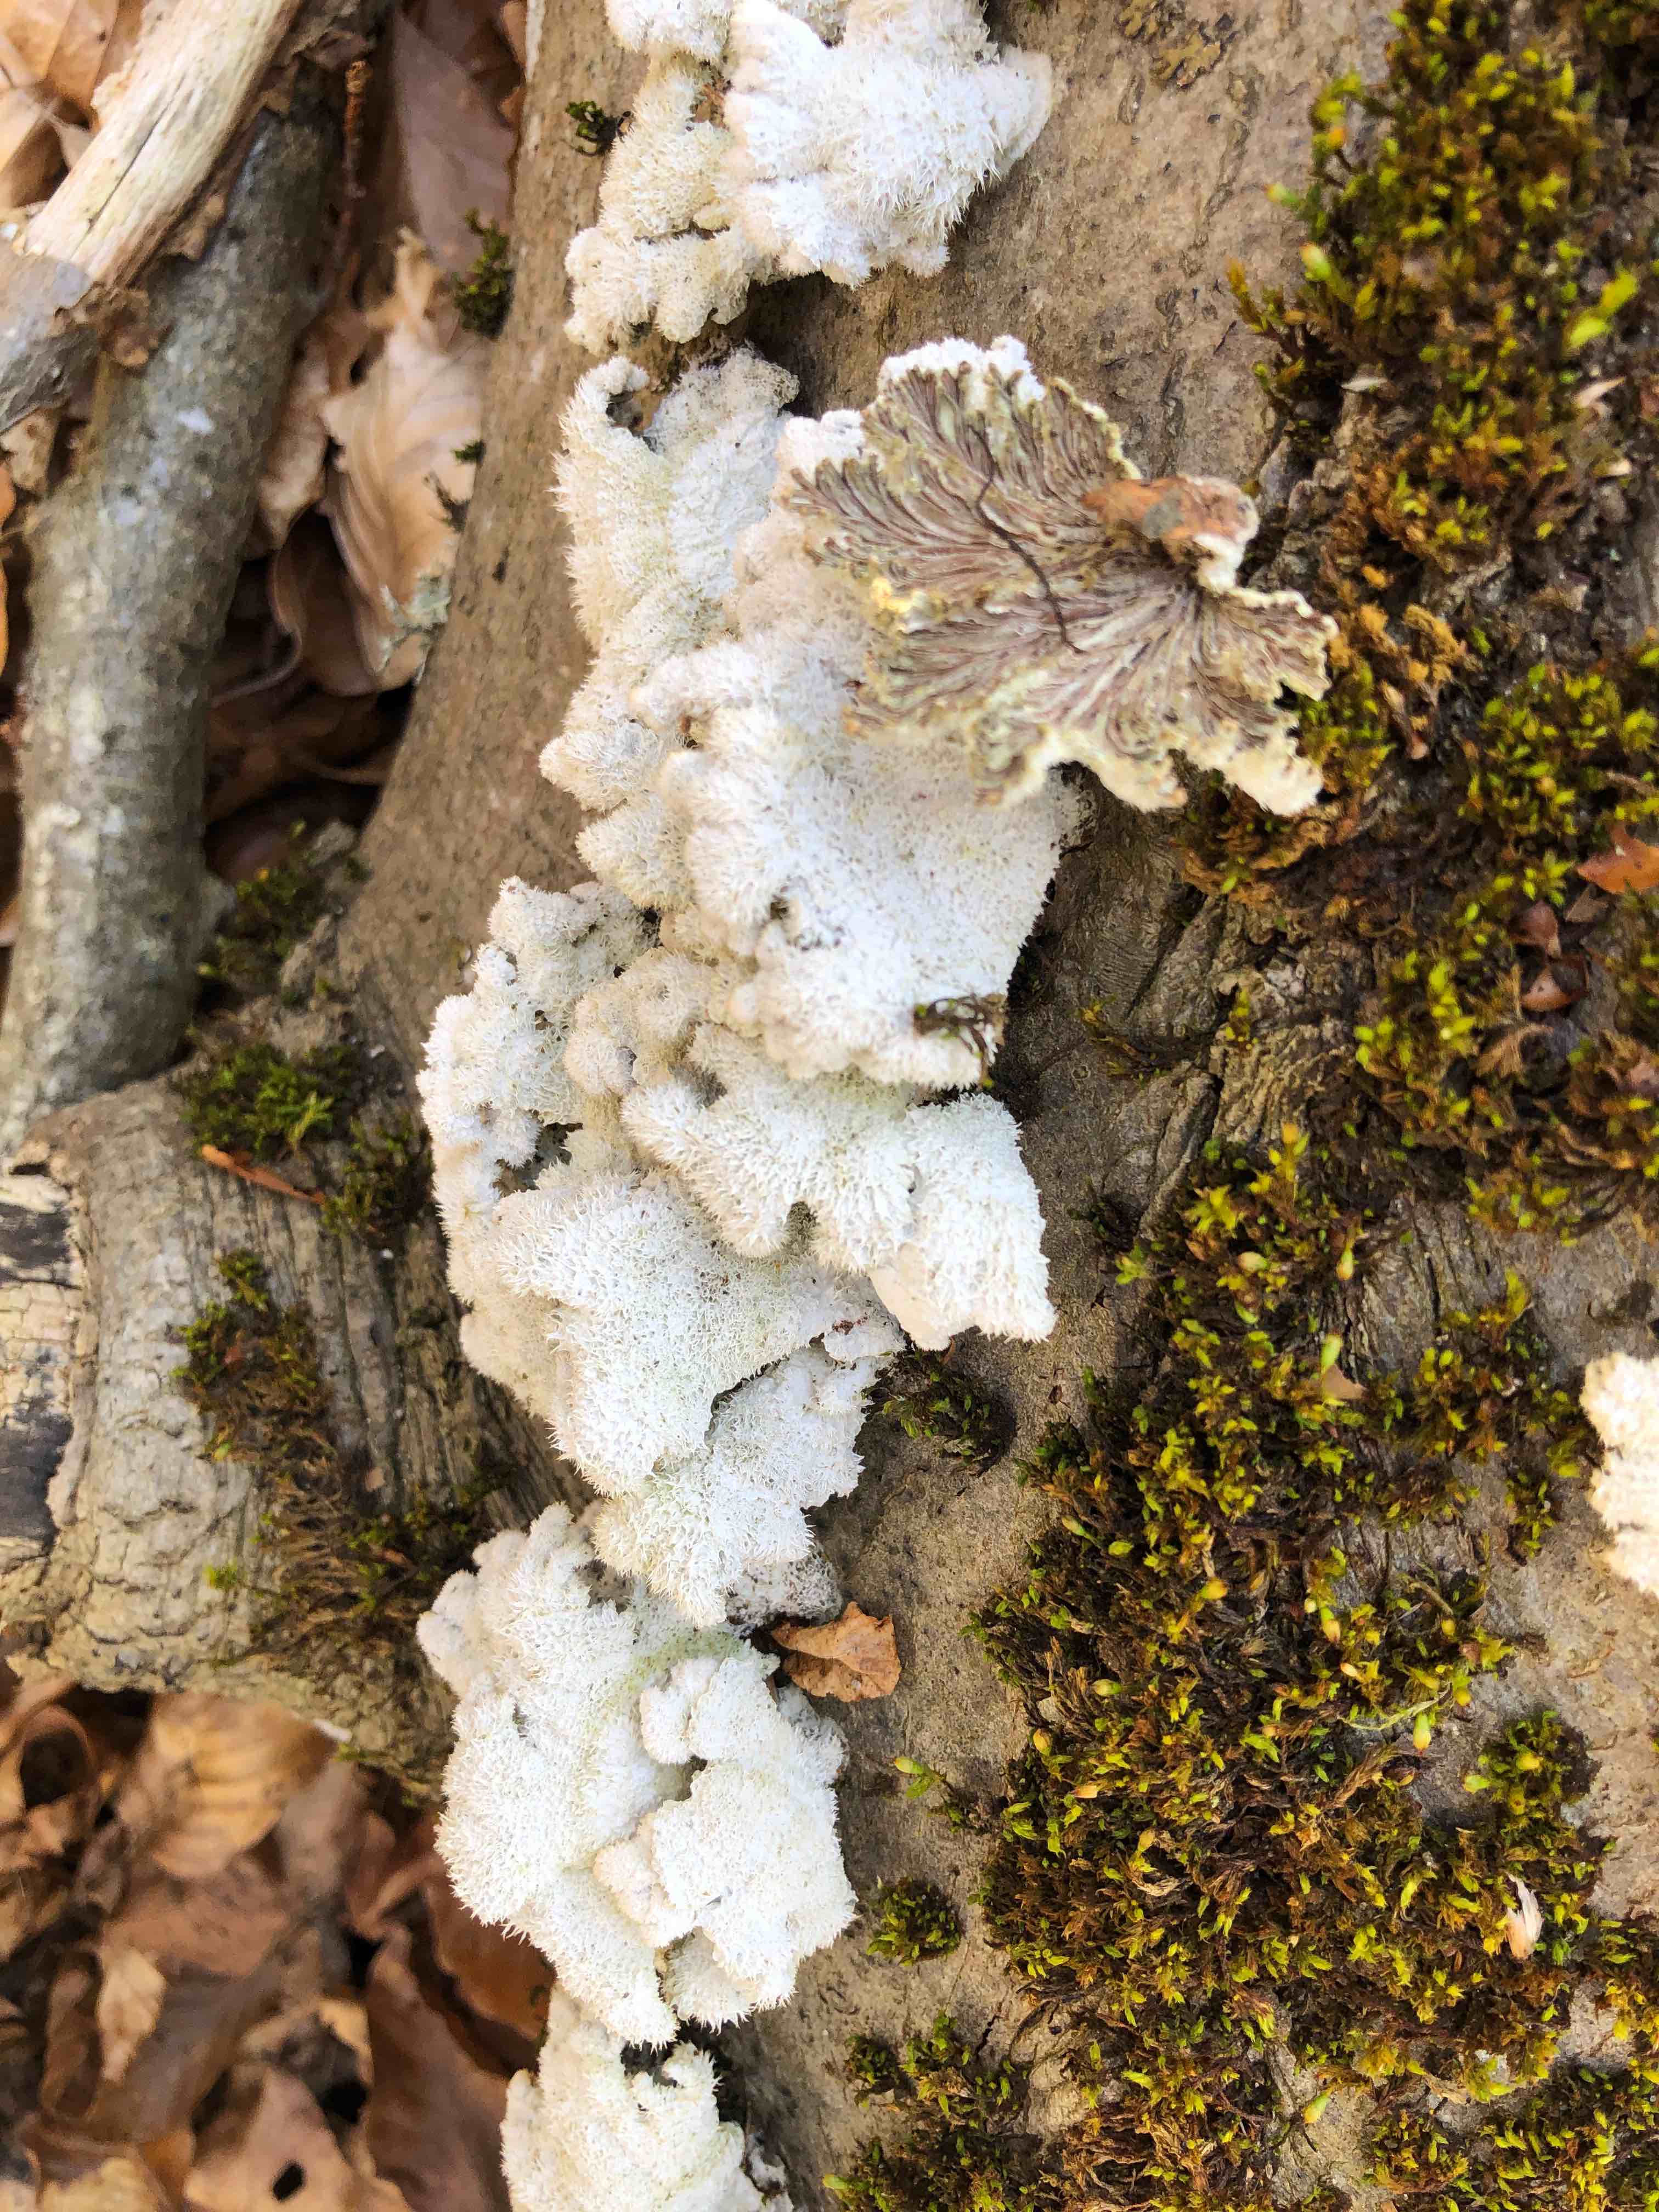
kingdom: Fungi
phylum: Basidiomycota
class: Agaricomycetes
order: Agaricales
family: Schizophyllaceae
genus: Schizophyllum
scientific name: Schizophyllum commune
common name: kløvblad
